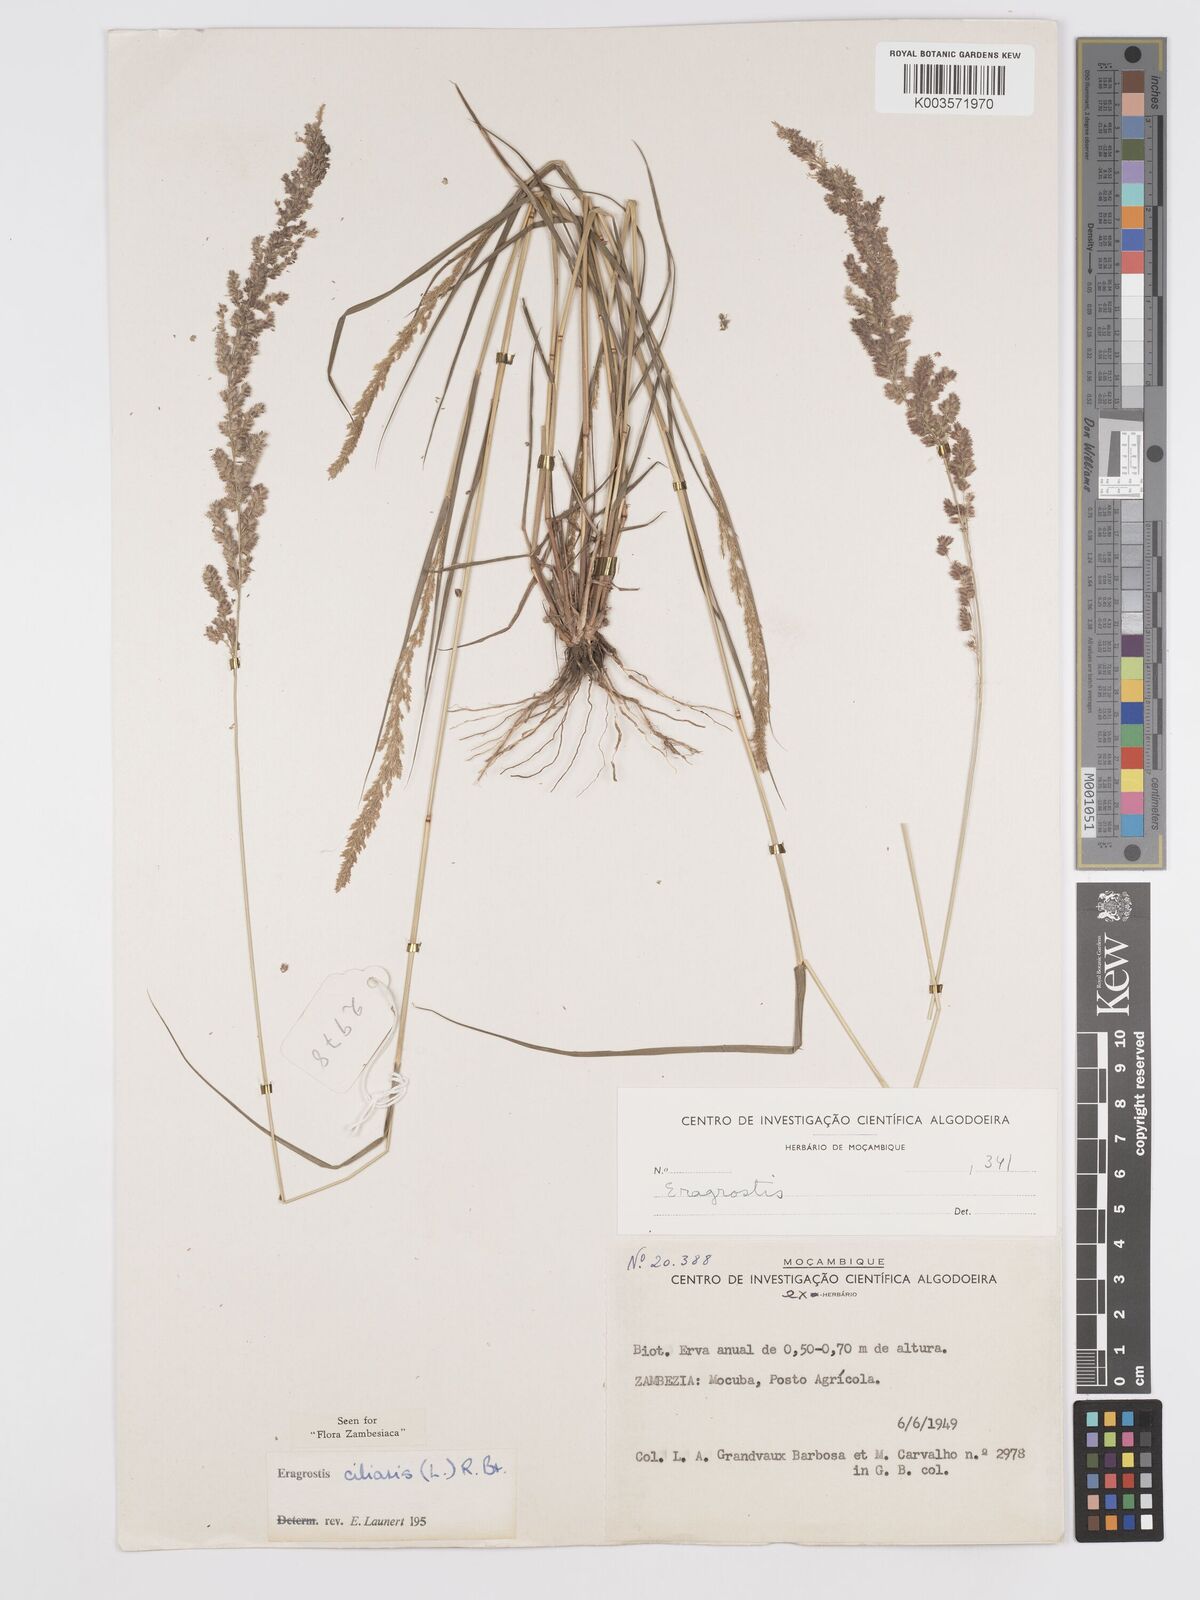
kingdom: Plantae
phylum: Tracheophyta
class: Liliopsida
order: Poales
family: Poaceae
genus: Eragrostis
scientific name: Eragrostis ciliaris
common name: Gophertail lovegrass
